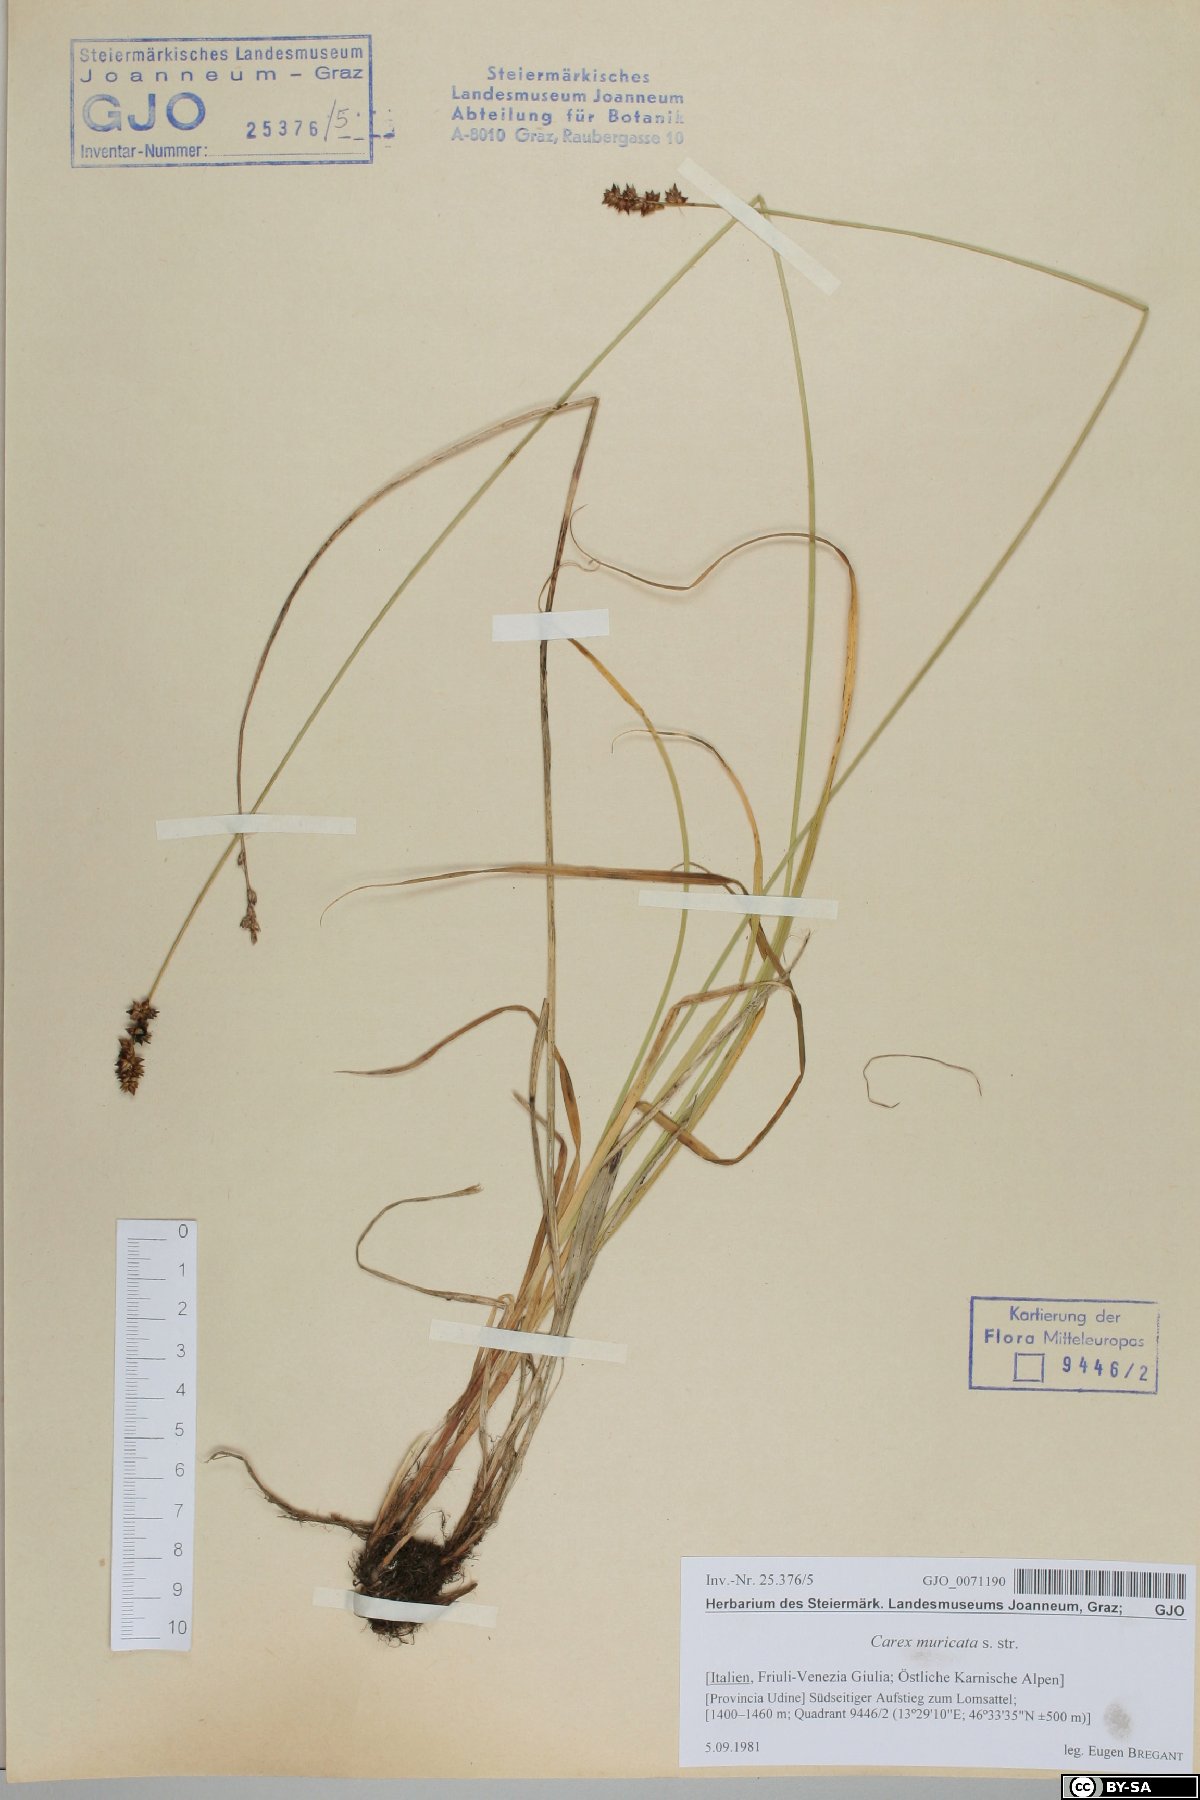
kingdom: Plantae
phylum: Tracheophyta
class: Liliopsida
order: Poales
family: Cyperaceae
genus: Carex
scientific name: Carex muricata
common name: Rough sedge
